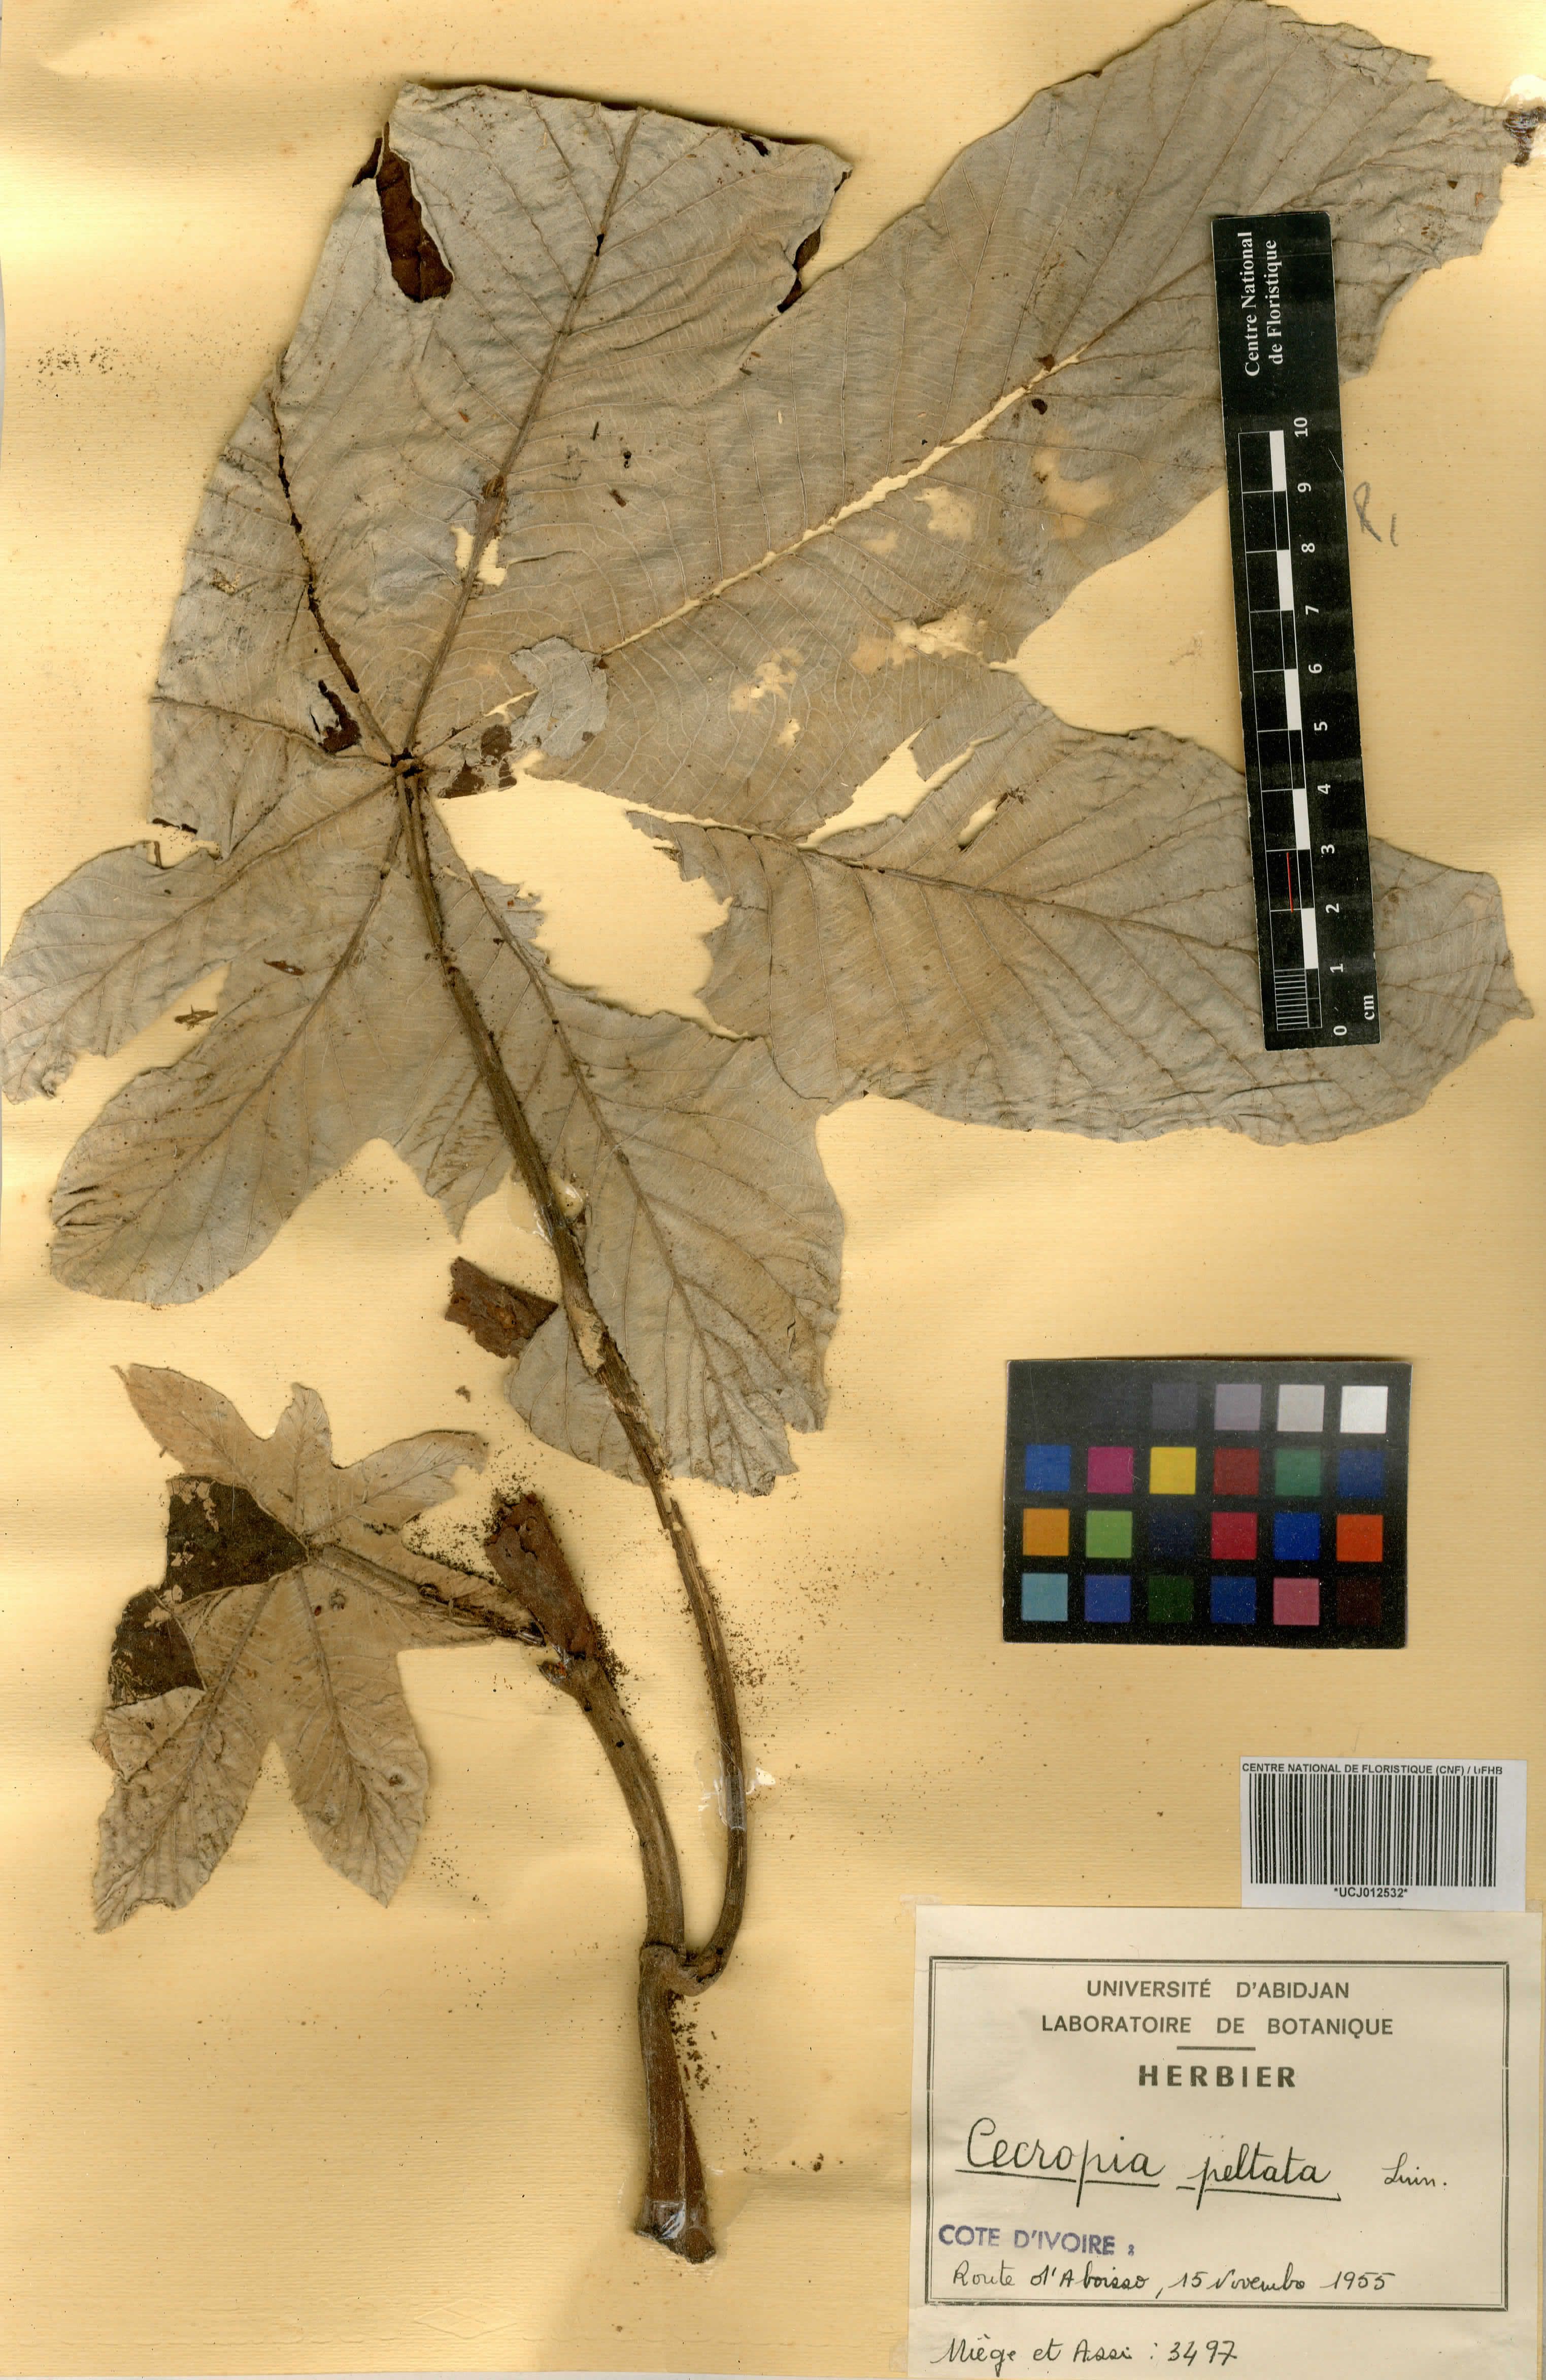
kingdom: Plantae
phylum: Tracheophyta
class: Magnoliopsida
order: Rosales
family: Urticaceae
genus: Cecropia
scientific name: Cecropia peltata
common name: Trumpet-tree
